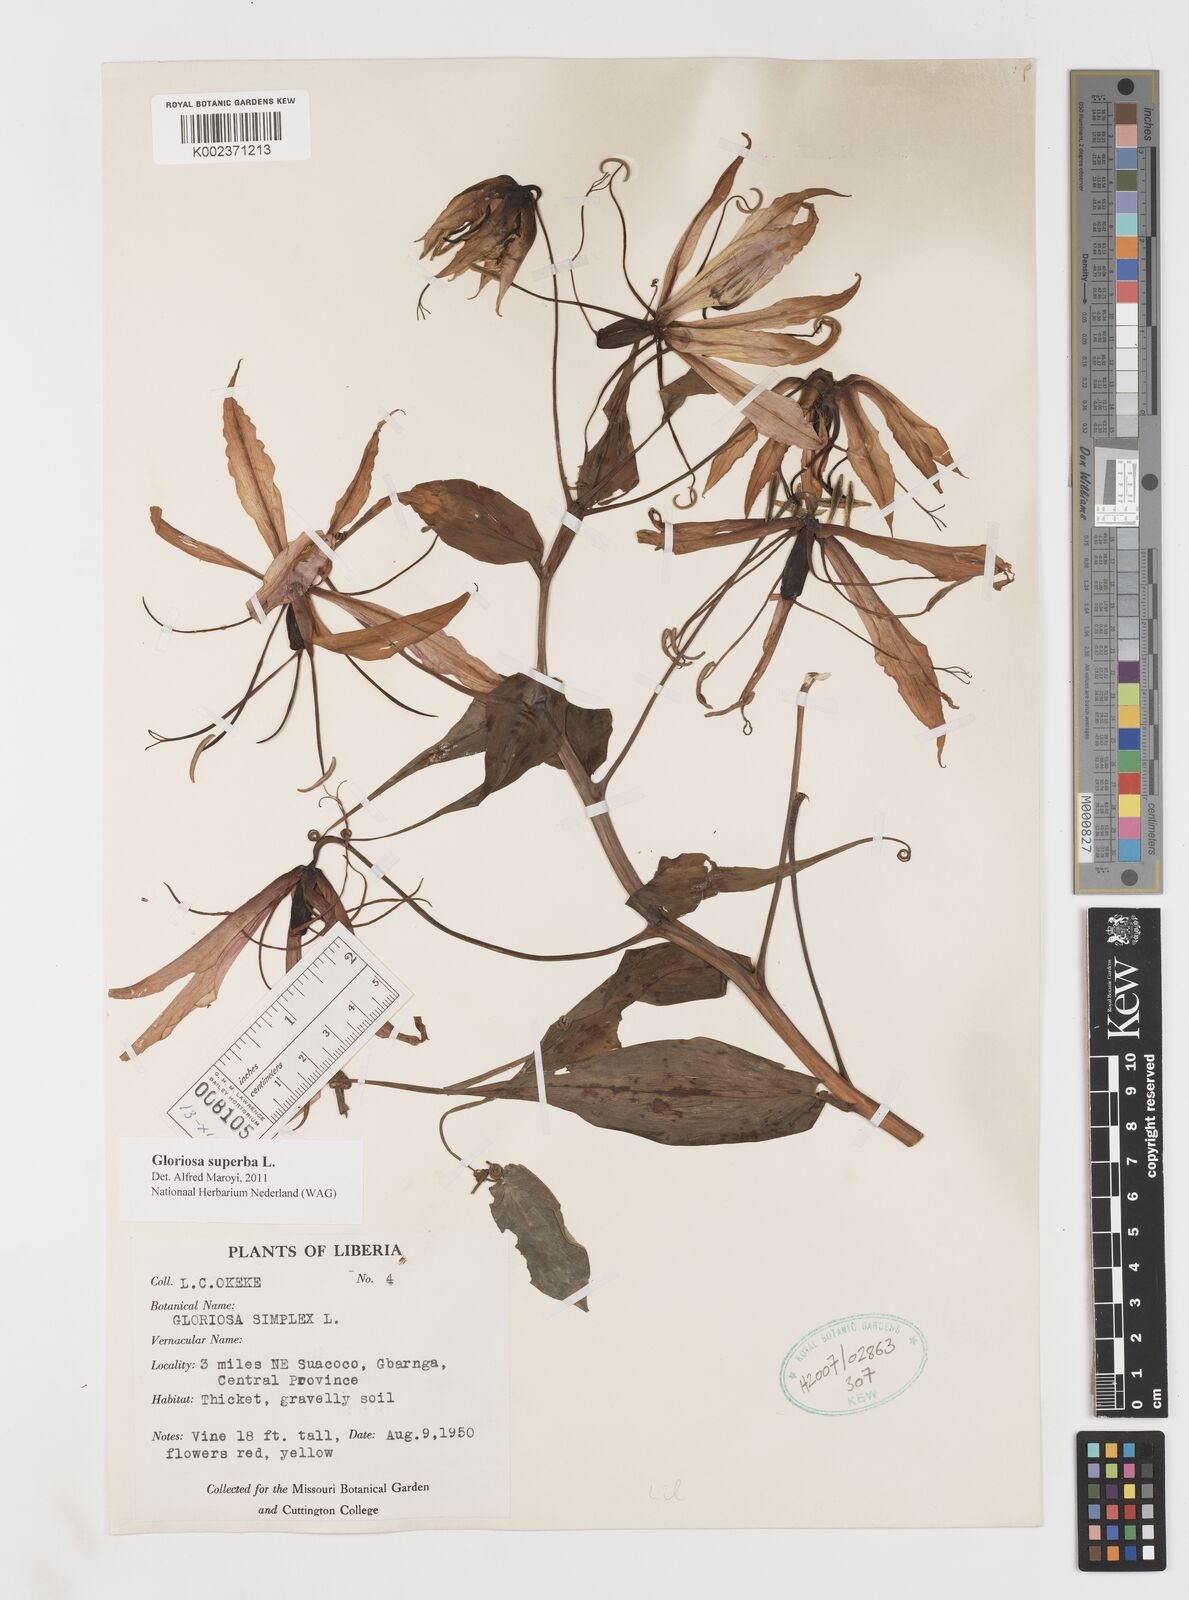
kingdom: Plantae
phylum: Tracheophyta
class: Liliopsida
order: Liliales
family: Colchicaceae
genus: Gloriosa
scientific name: Gloriosa superba
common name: Flame lily
